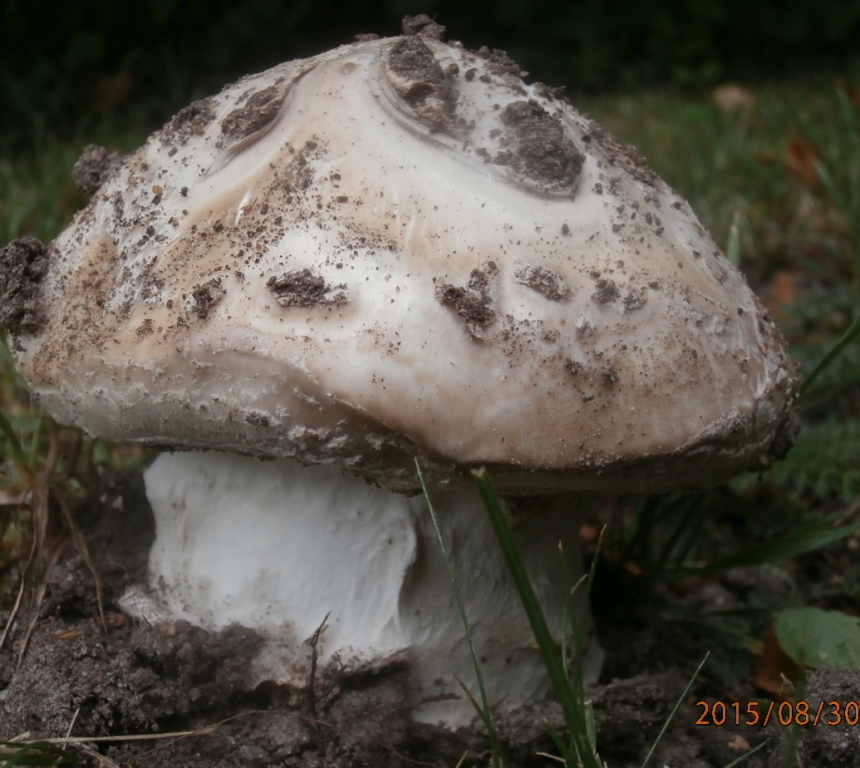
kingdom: Fungi
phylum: Basidiomycota
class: Agaricomycetes
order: Agaricales
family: Amanitaceae
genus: Amanita
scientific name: Amanita
